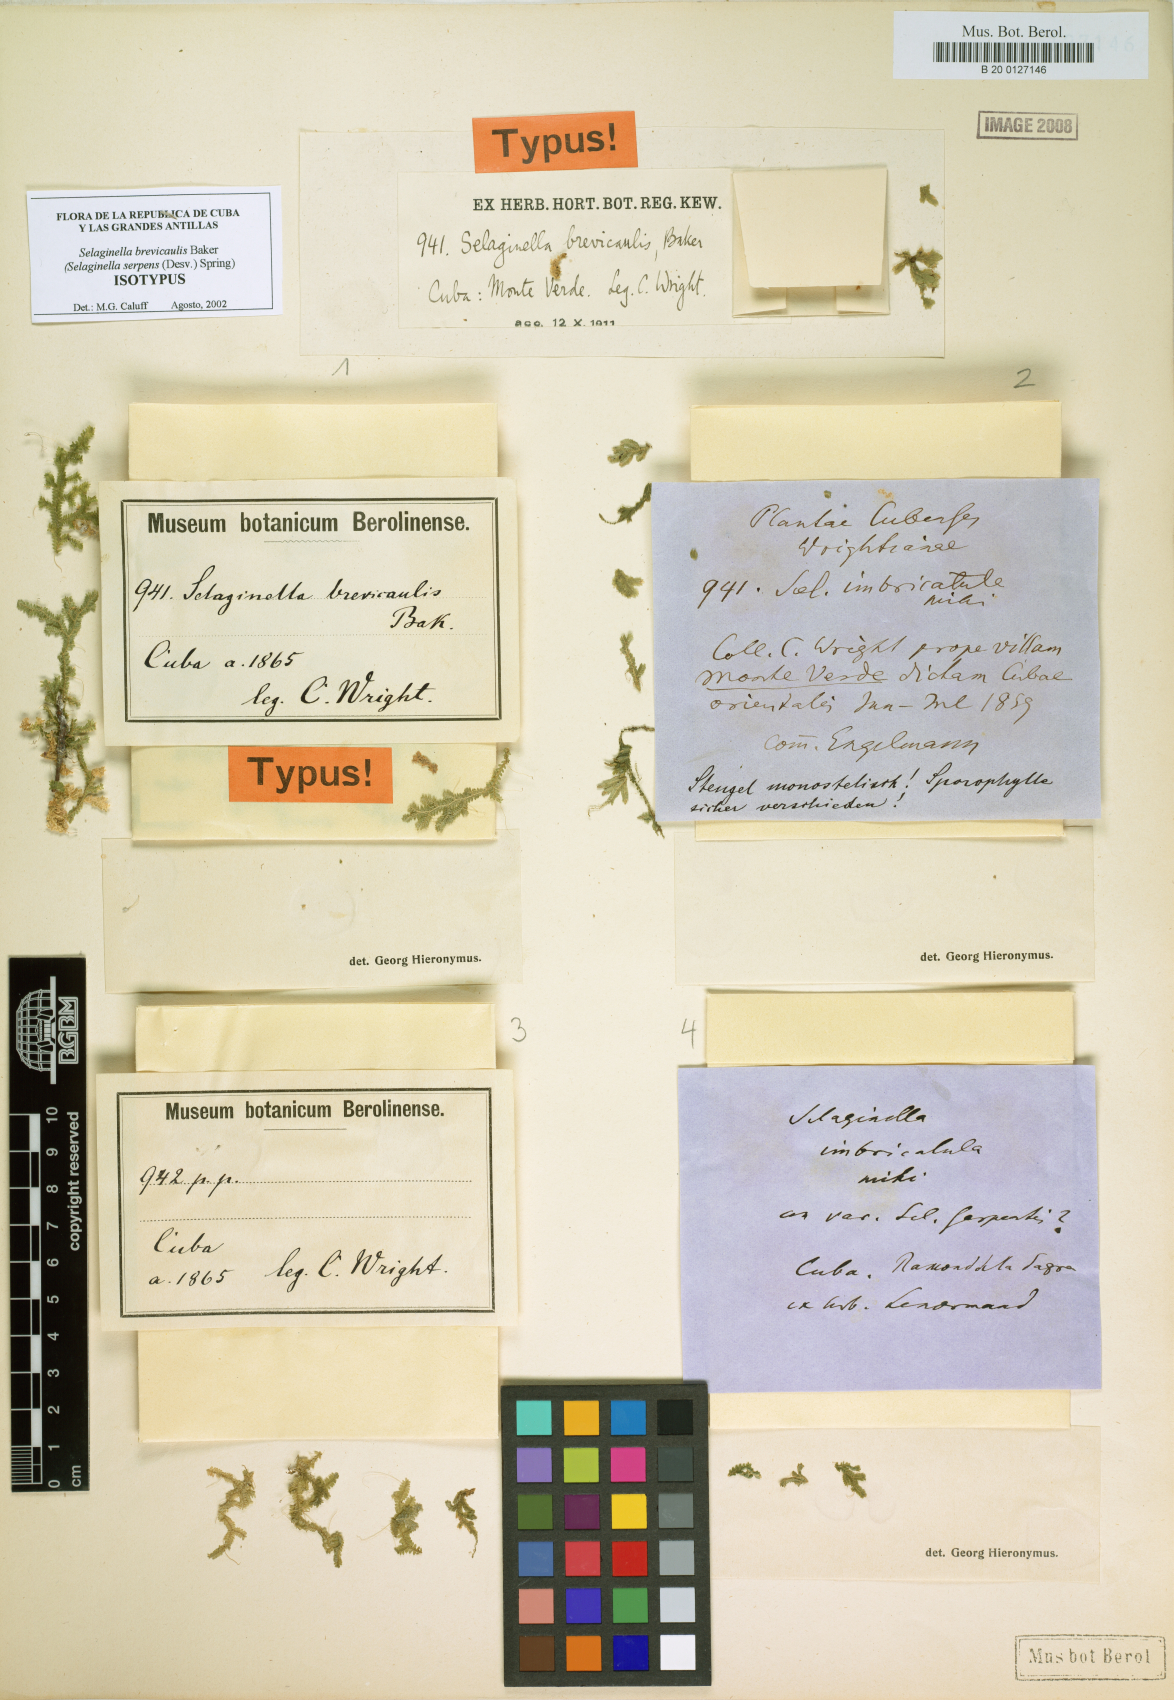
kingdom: Plantae
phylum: Tracheophyta
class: Lycopodiopsida
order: Selaginellales
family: Selaginellaceae
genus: Selaginella
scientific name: Selaginella heterodonta
